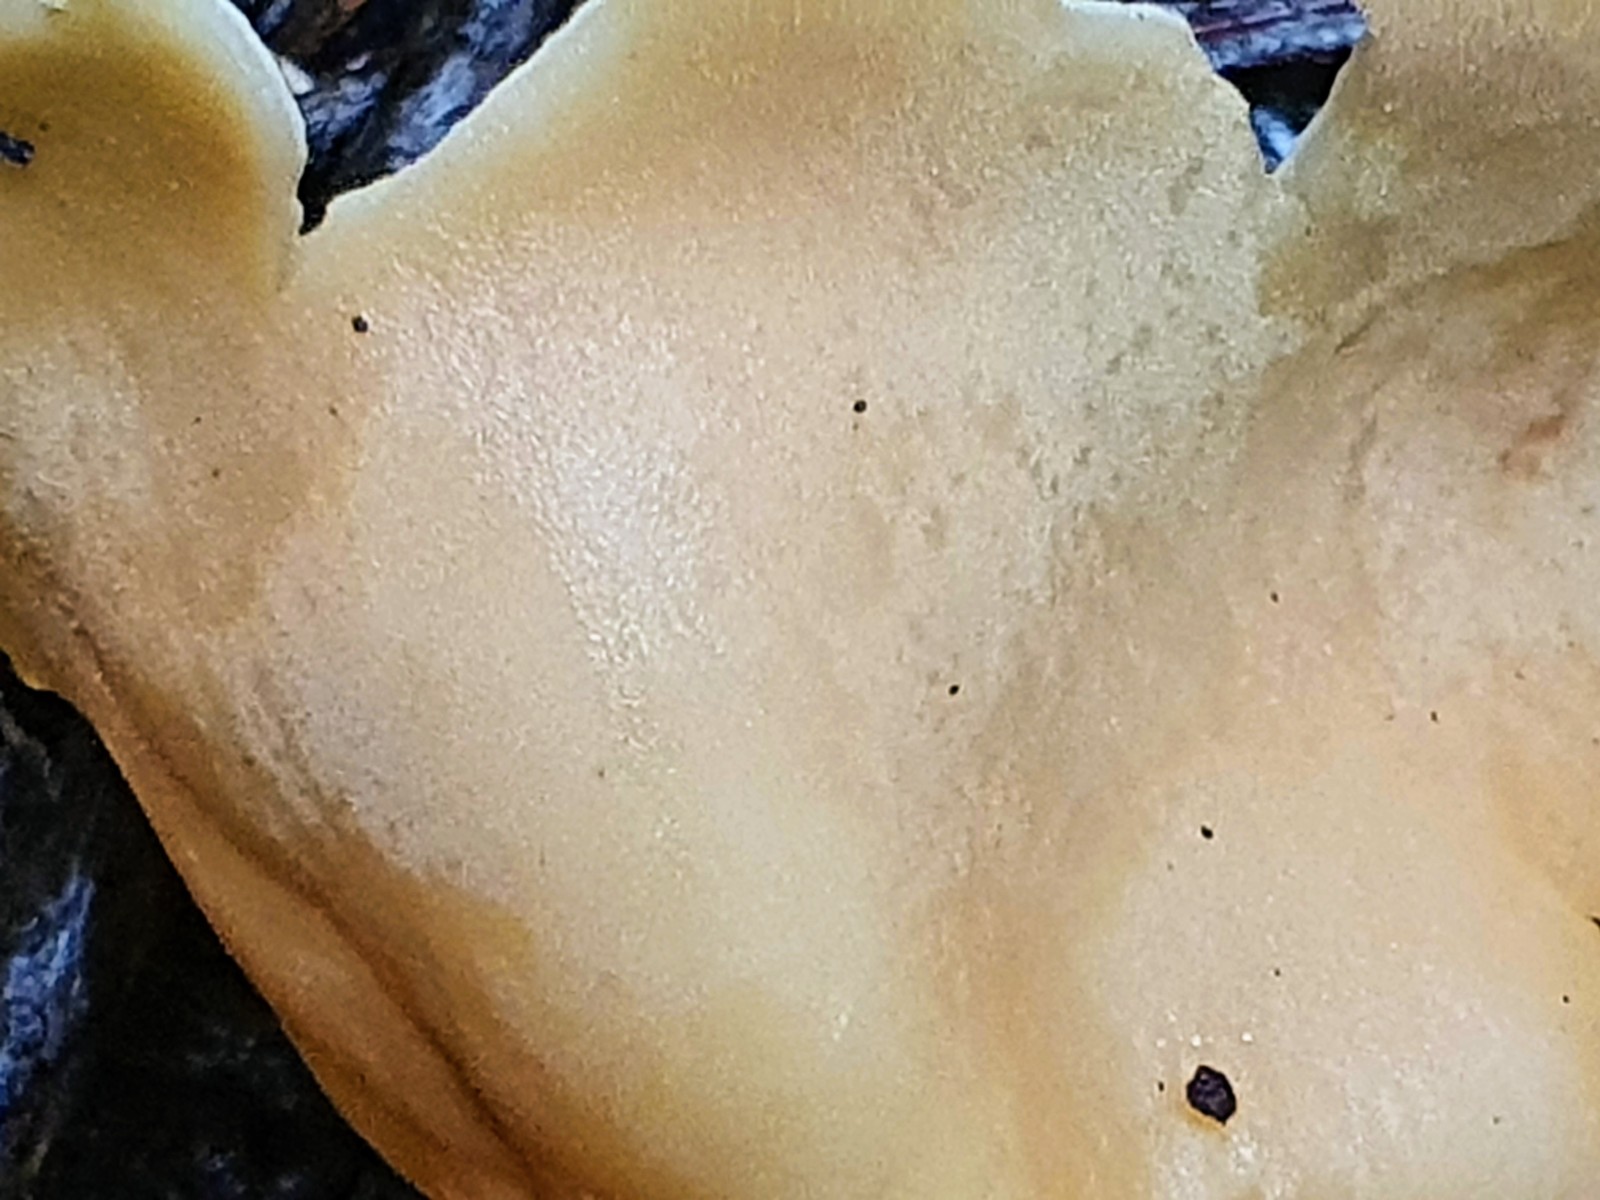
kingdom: Fungi
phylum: Ascomycota
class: Pezizomycetes
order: Pezizales
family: Otideaceae
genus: Otidea
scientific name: Otidea onotica
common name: æsel-ørebæger
